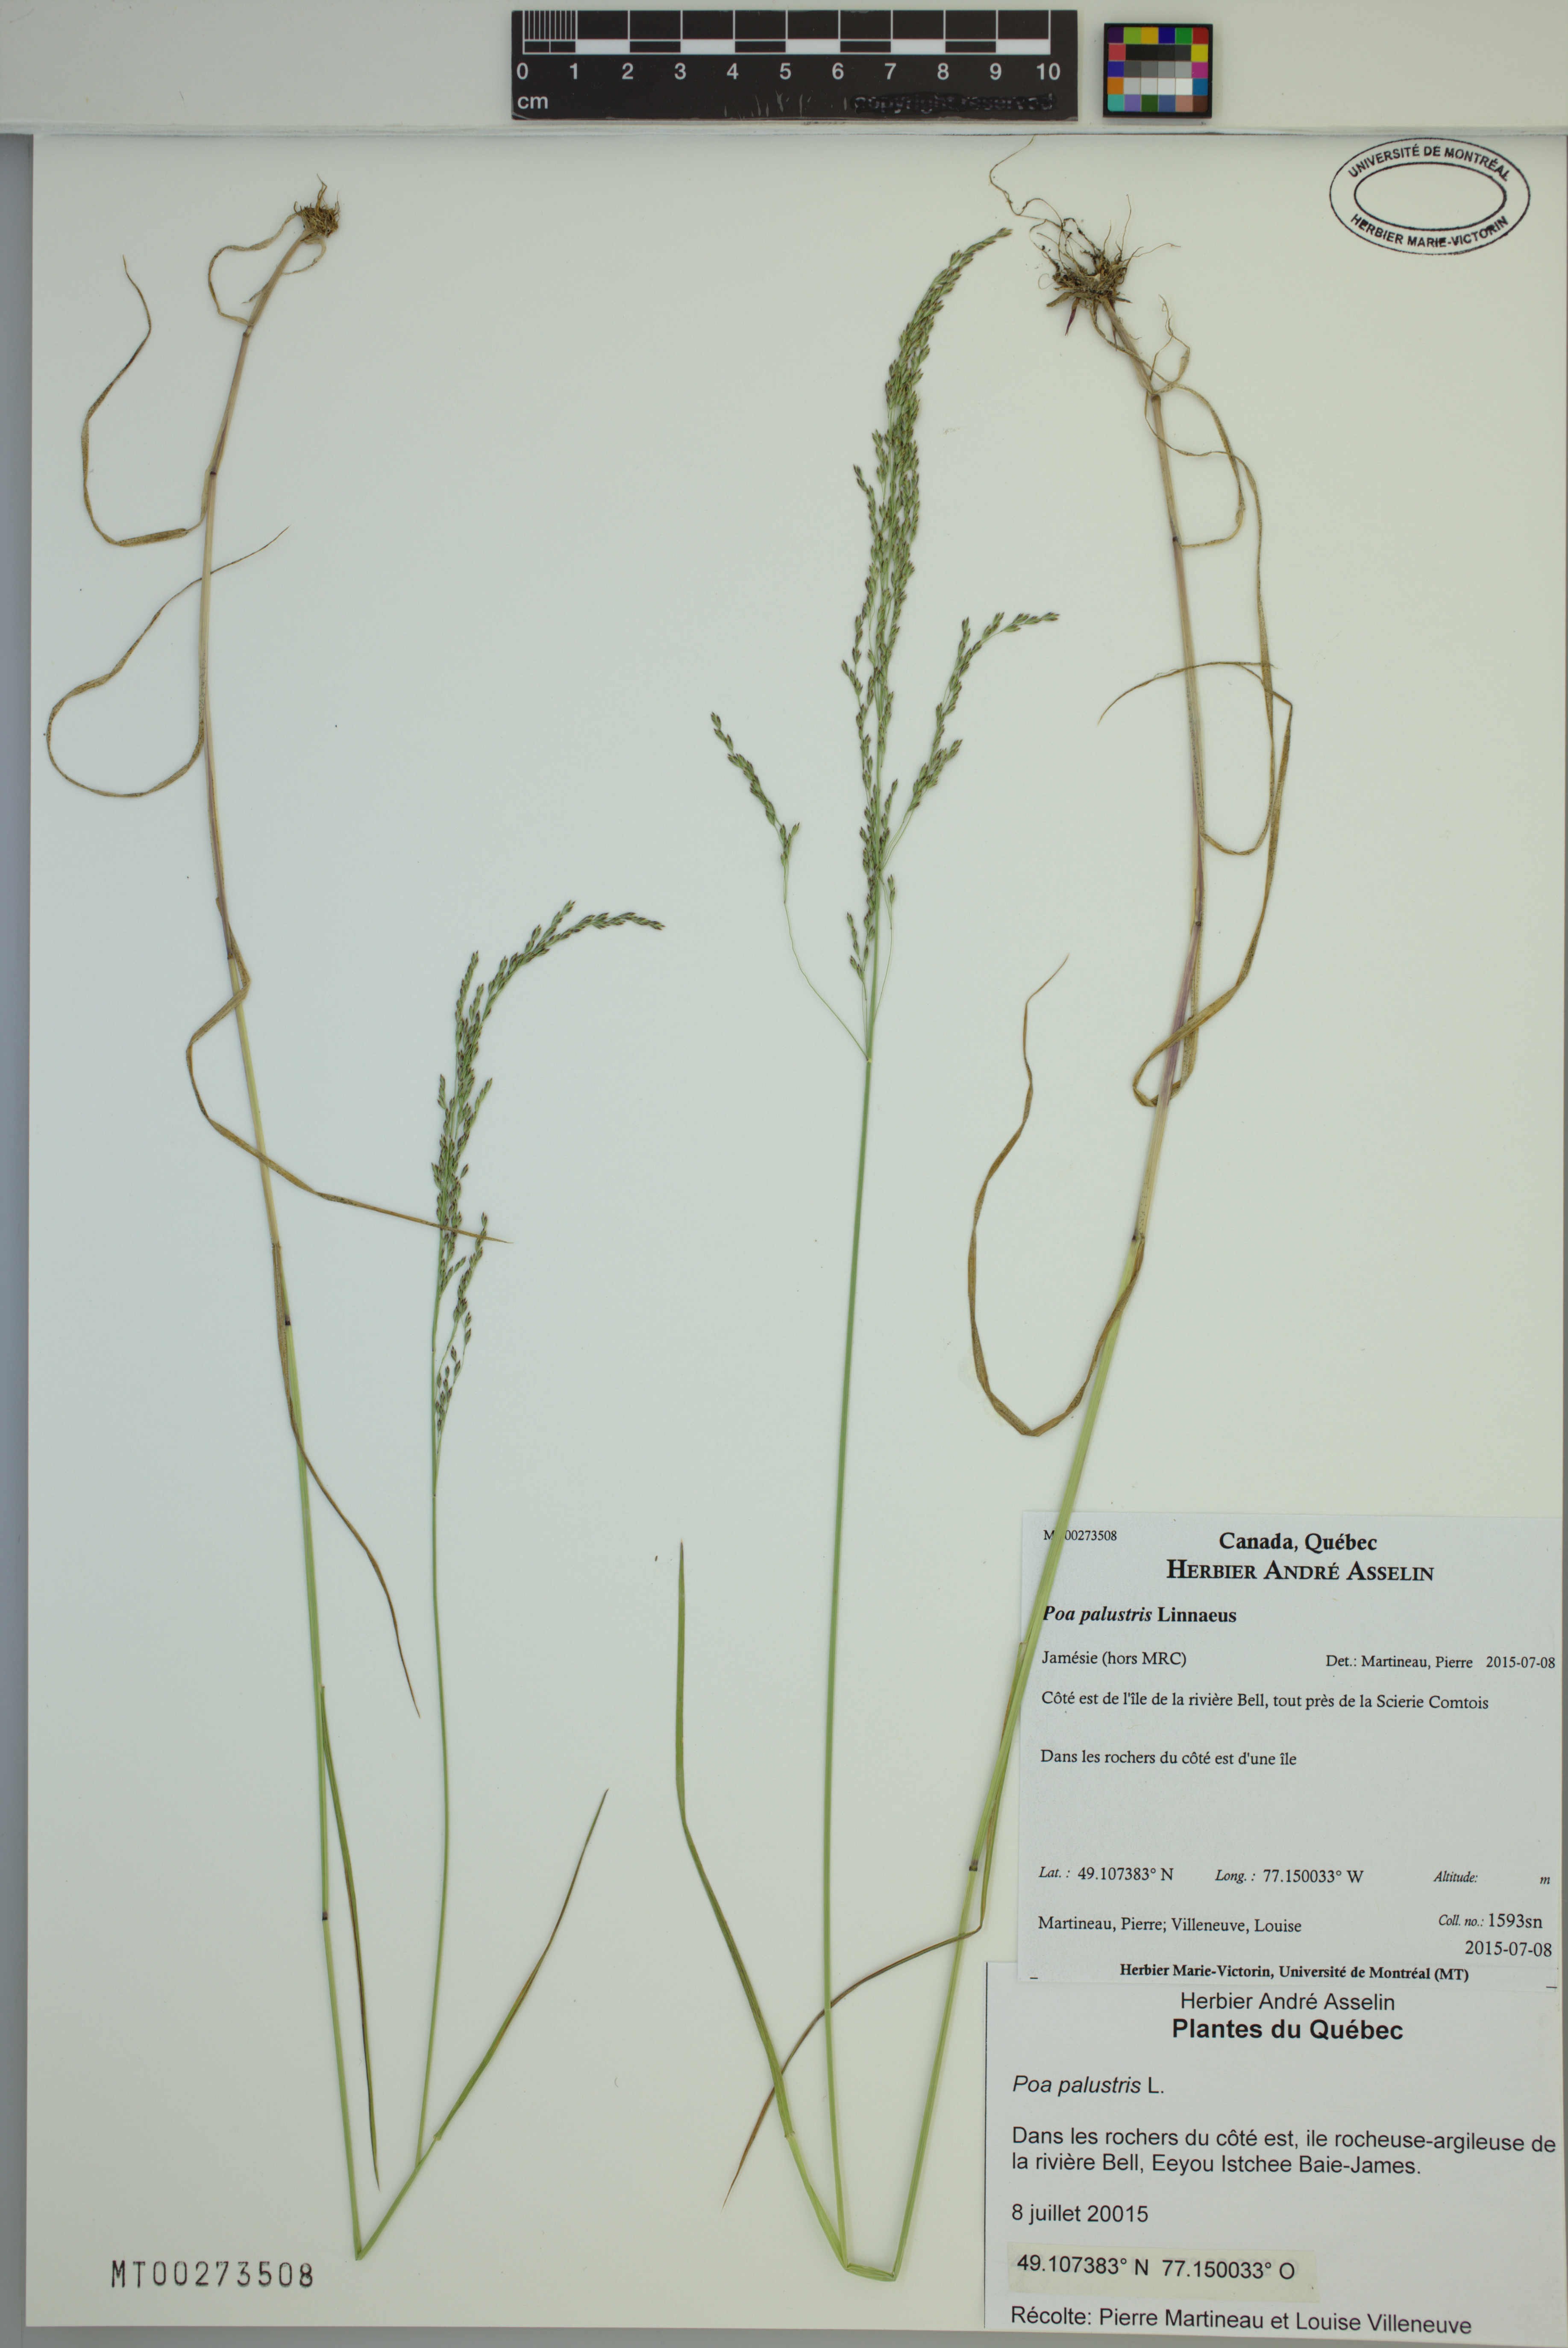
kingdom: Plantae
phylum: Tracheophyta
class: Liliopsida
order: Poales
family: Poaceae
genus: Poa
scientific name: Poa palustris
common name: Swamp meadow-grass
